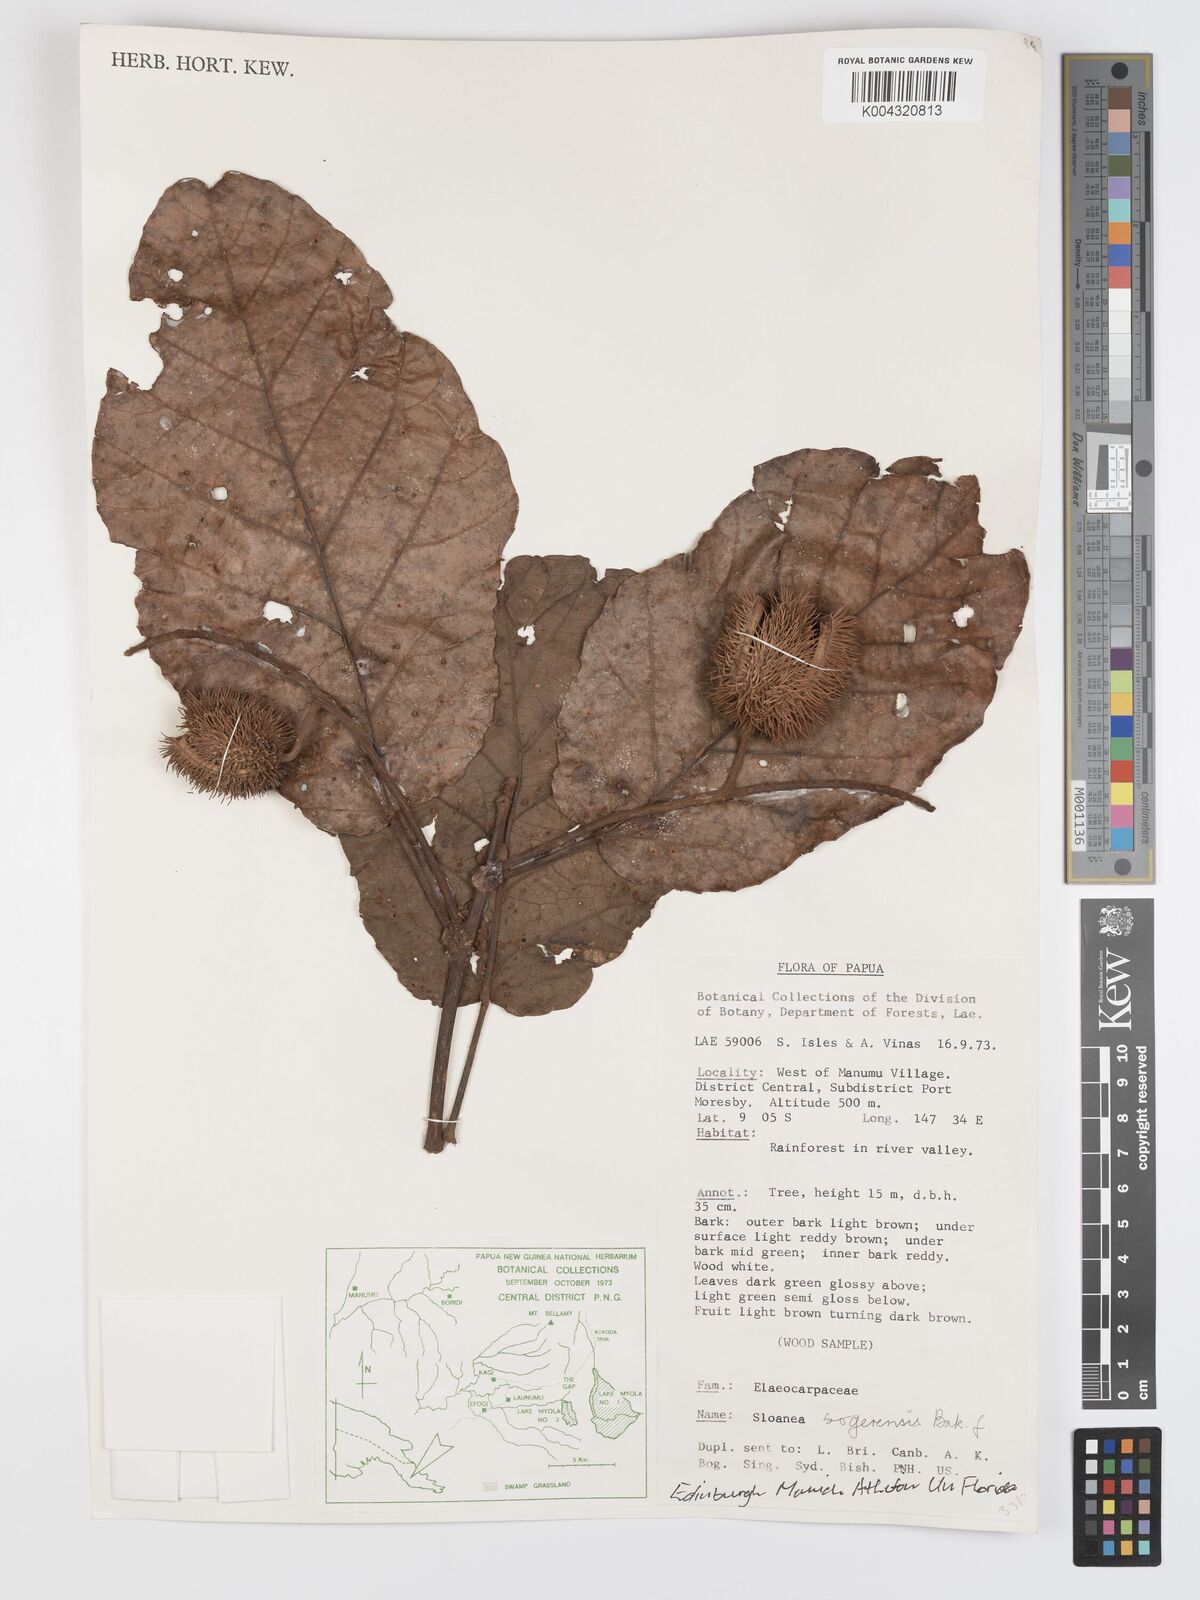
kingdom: Plantae
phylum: Tracheophyta
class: Magnoliopsida
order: Oxalidales
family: Elaeocarpaceae
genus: Sloanea
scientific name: Sloanea sogerensis
